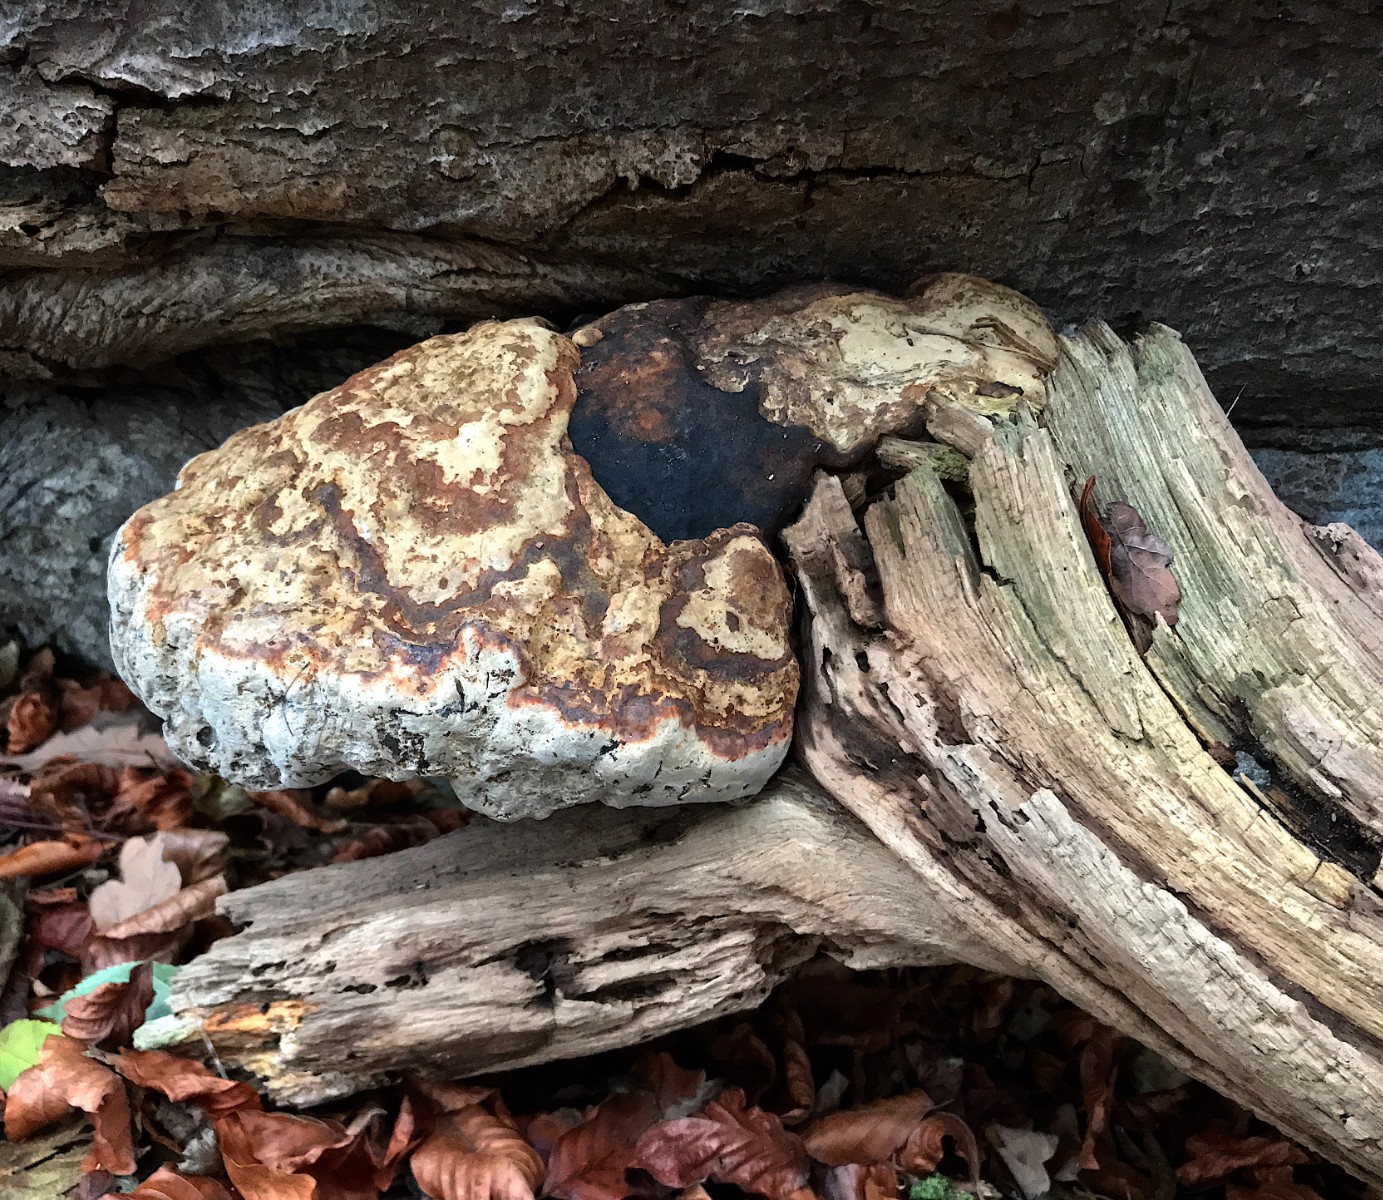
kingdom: Fungi
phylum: Basidiomycota
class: Agaricomycetes
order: Polyporales
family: Polyporaceae
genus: Fomes
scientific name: Fomes fomentarius
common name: tøndersvamp
